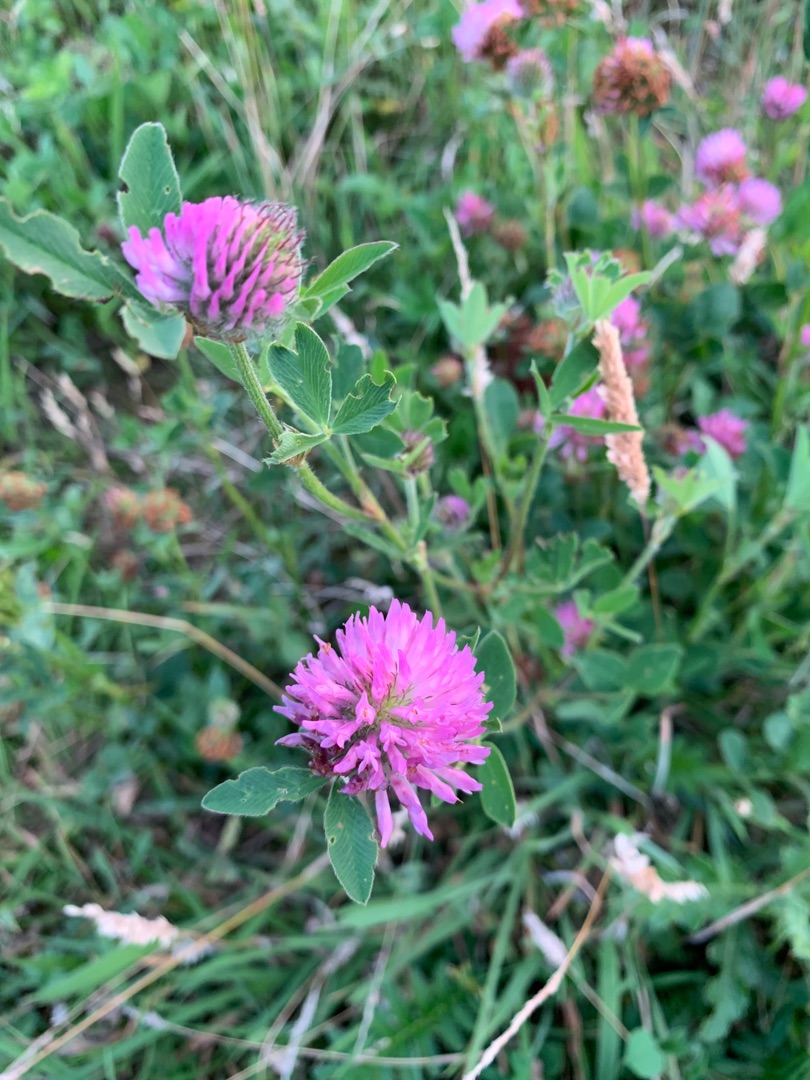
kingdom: Plantae
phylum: Tracheophyta
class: Magnoliopsida
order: Fabales
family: Fabaceae
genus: Trifolium
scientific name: Trifolium pratense
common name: Rød-kløver
